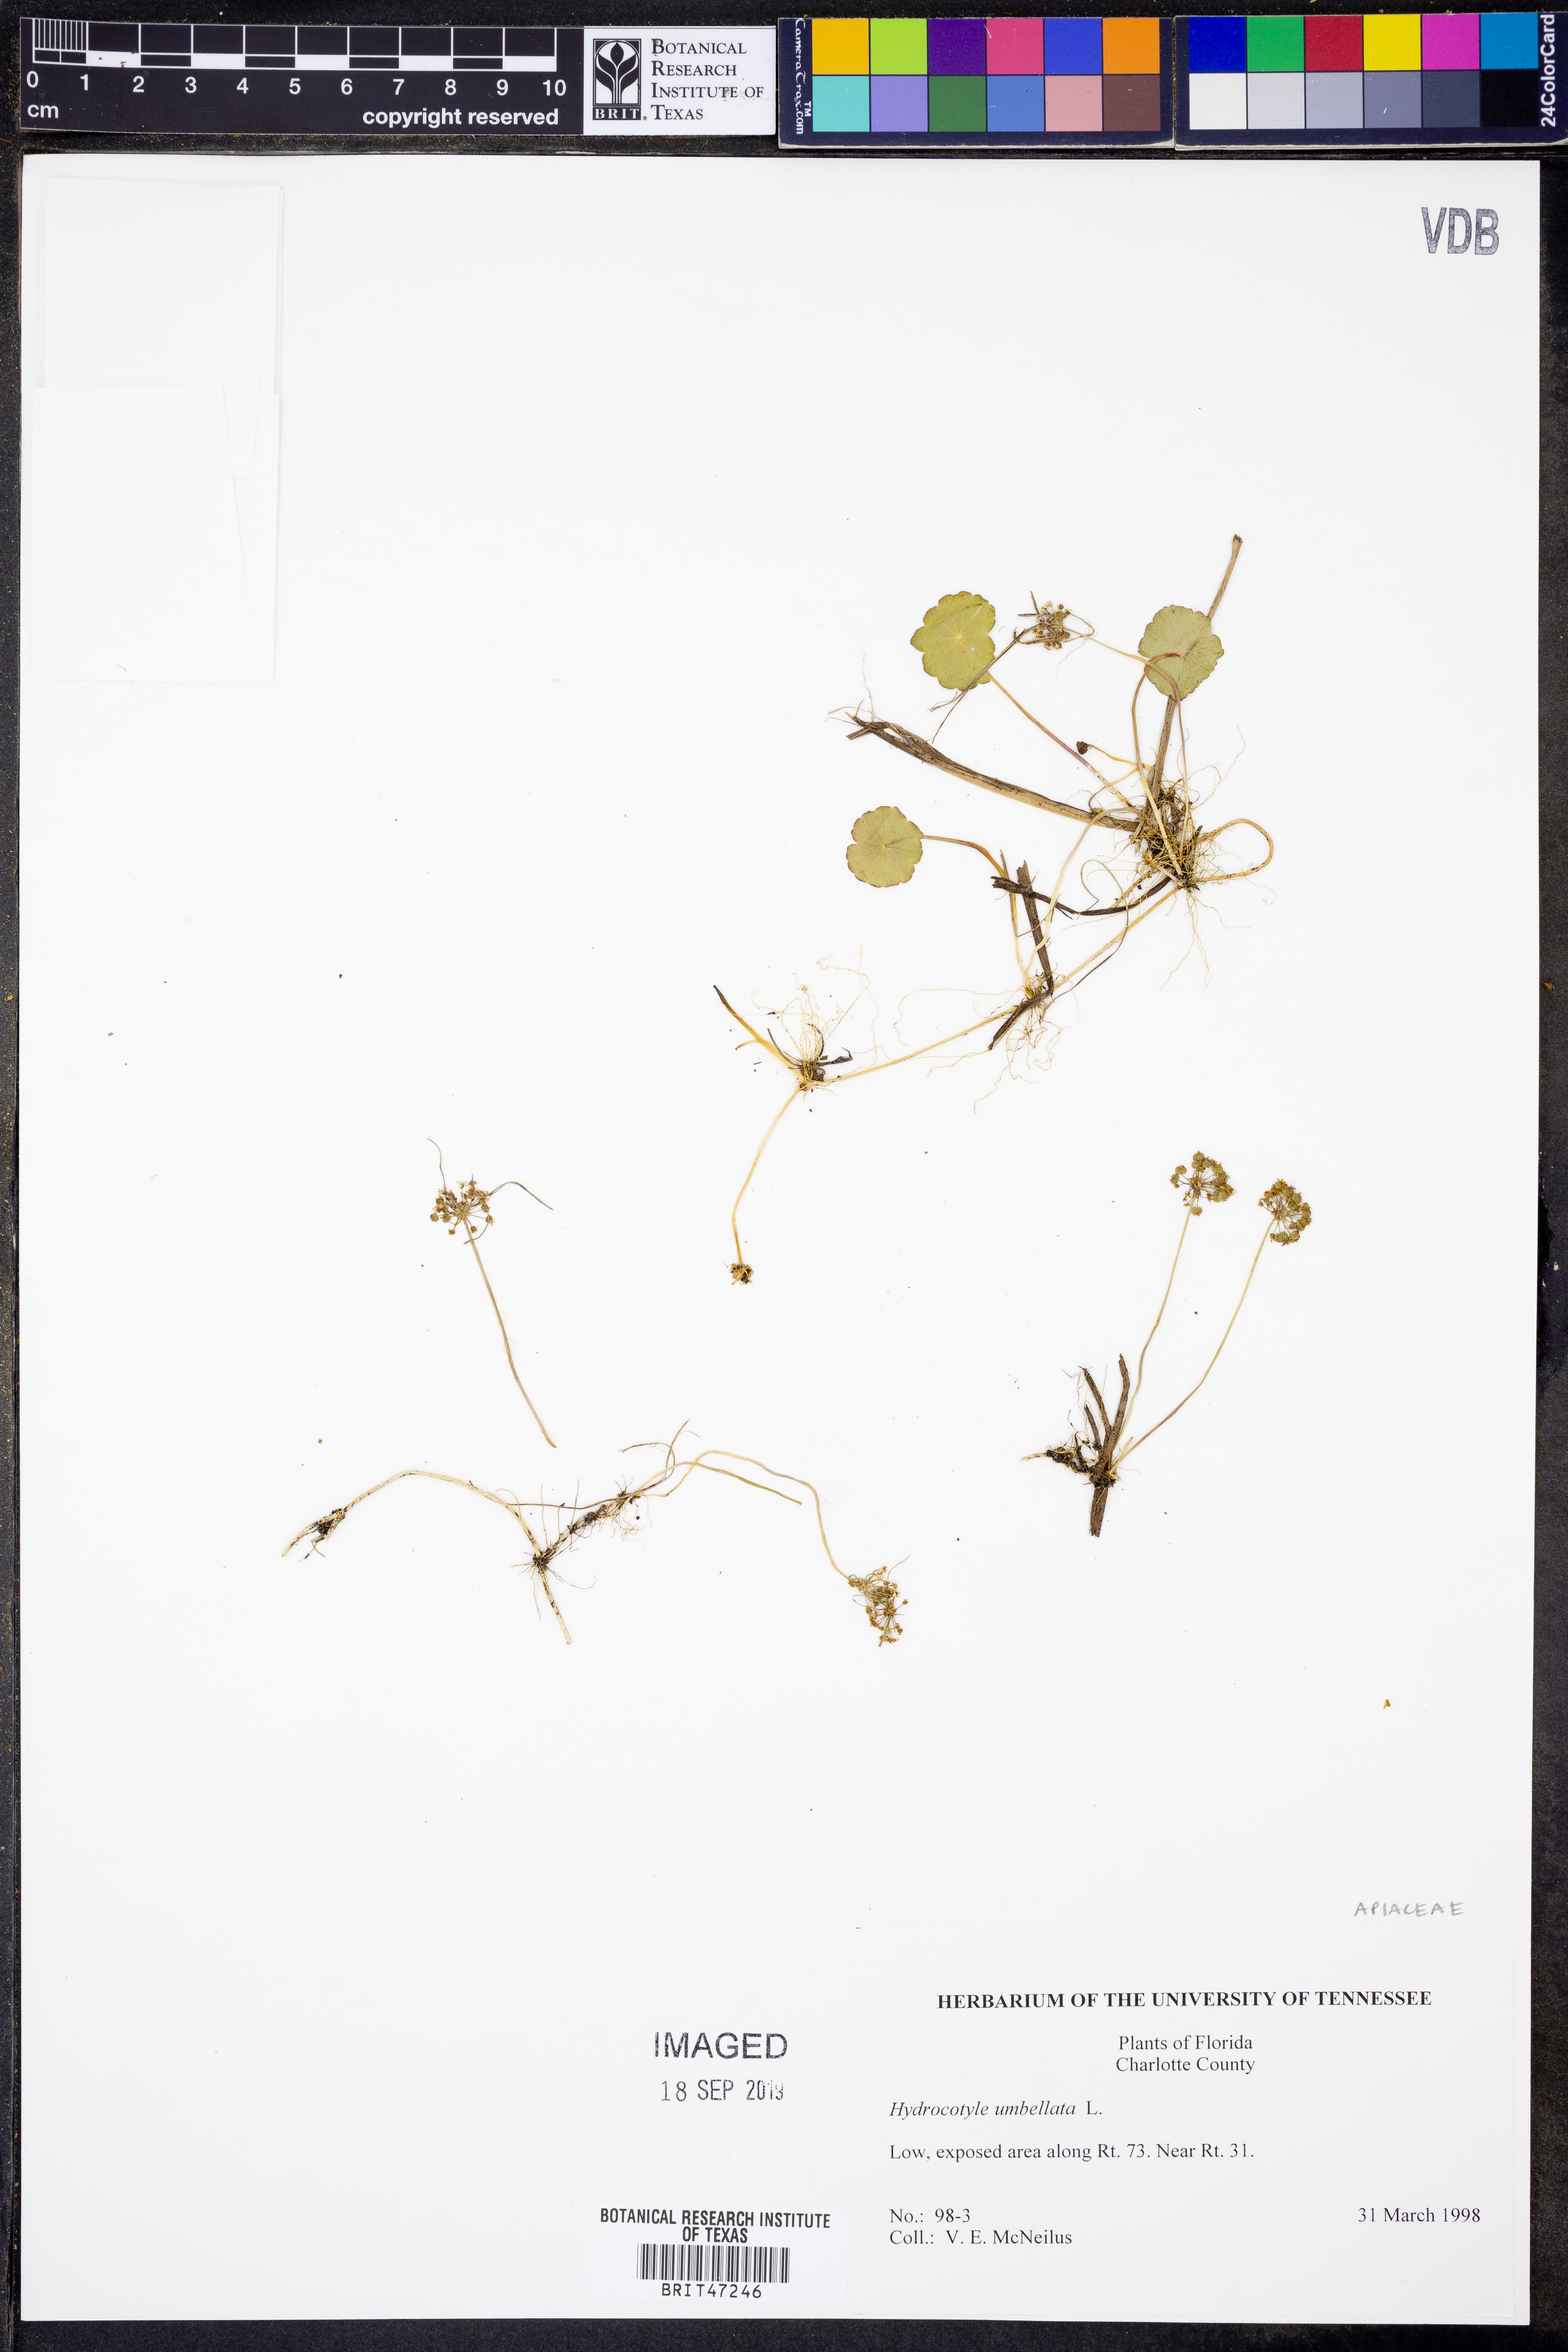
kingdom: Plantae
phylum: Tracheophyta
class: Magnoliopsida
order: Apiales
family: Araliaceae
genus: Hydrocotyle
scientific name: Hydrocotyle umbellata
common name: Water pennywort
